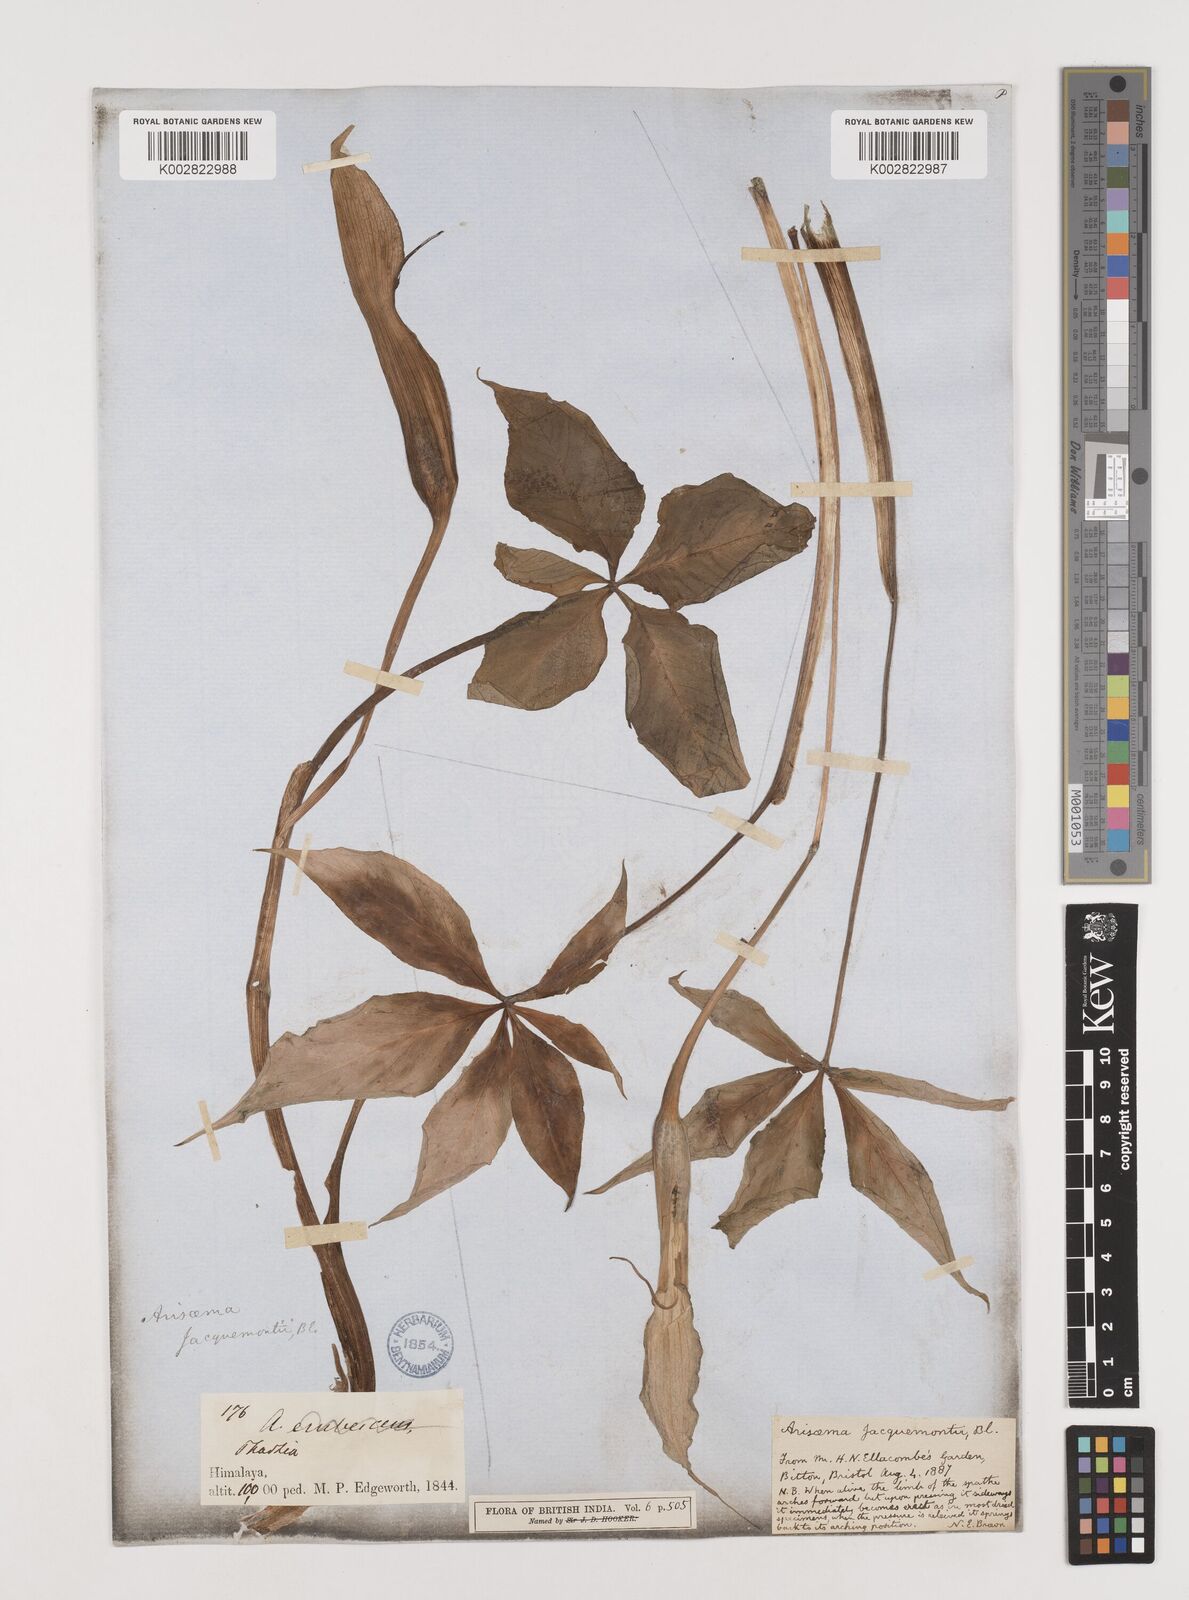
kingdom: Plantae
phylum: Tracheophyta
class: Liliopsida
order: Alismatales
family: Araceae
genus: Arisaema
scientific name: Arisaema jacquemontii
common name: Jacquemont's cobra-lily
